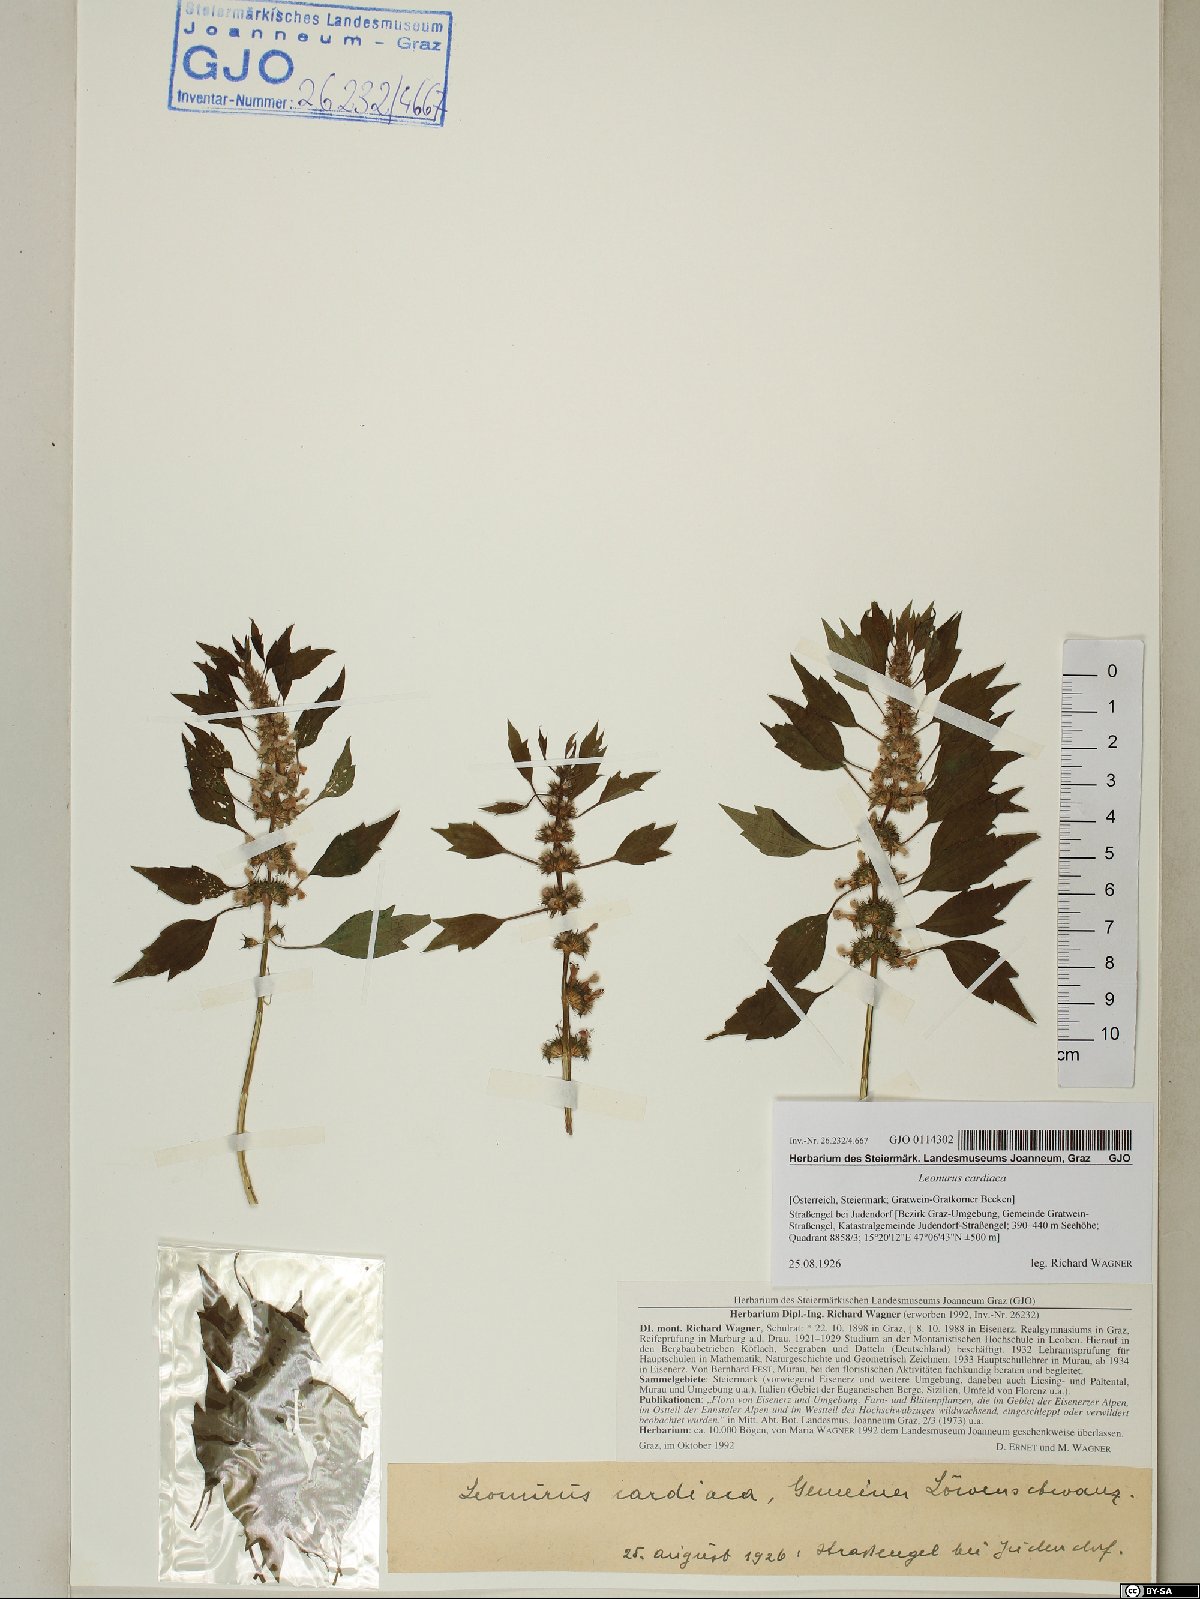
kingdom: Plantae
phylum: Tracheophyta
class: Magnoliopsida
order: Lamiales
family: Lamiaceae
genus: Leonurus
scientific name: Leonurus cardiaca
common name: Motherwort
